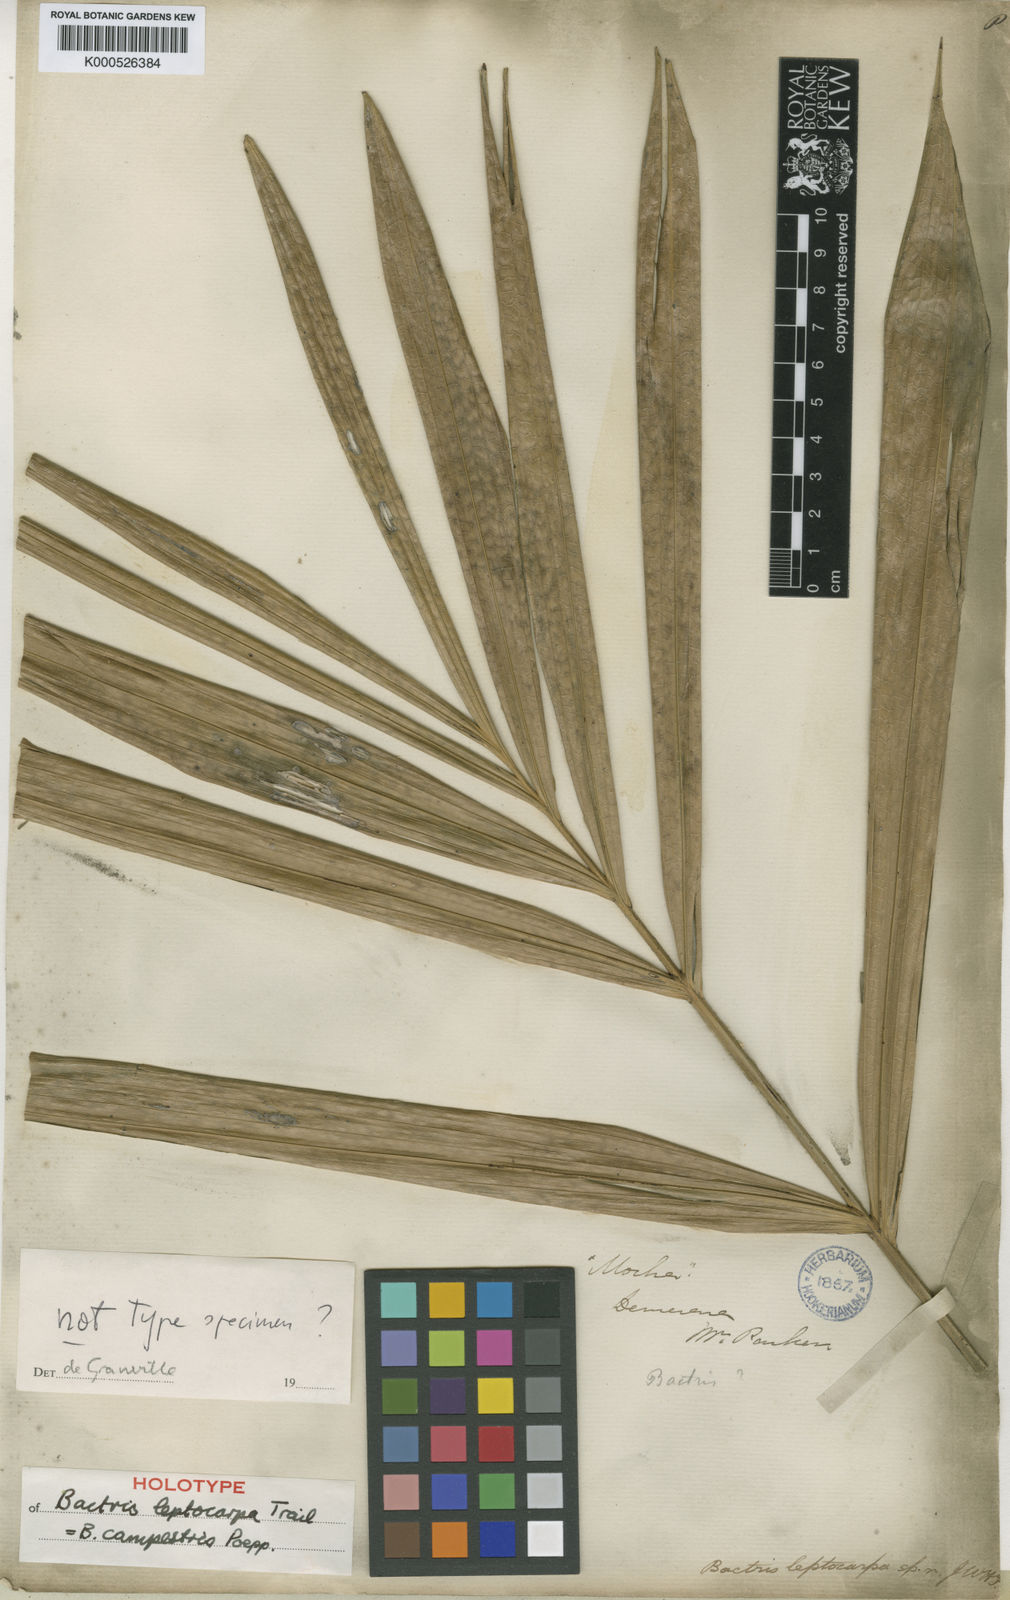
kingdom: Plantae
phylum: Tracheophyta
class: Liliopsida
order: Arecales
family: Arecaceae
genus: Bactris
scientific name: Bactris campestris
